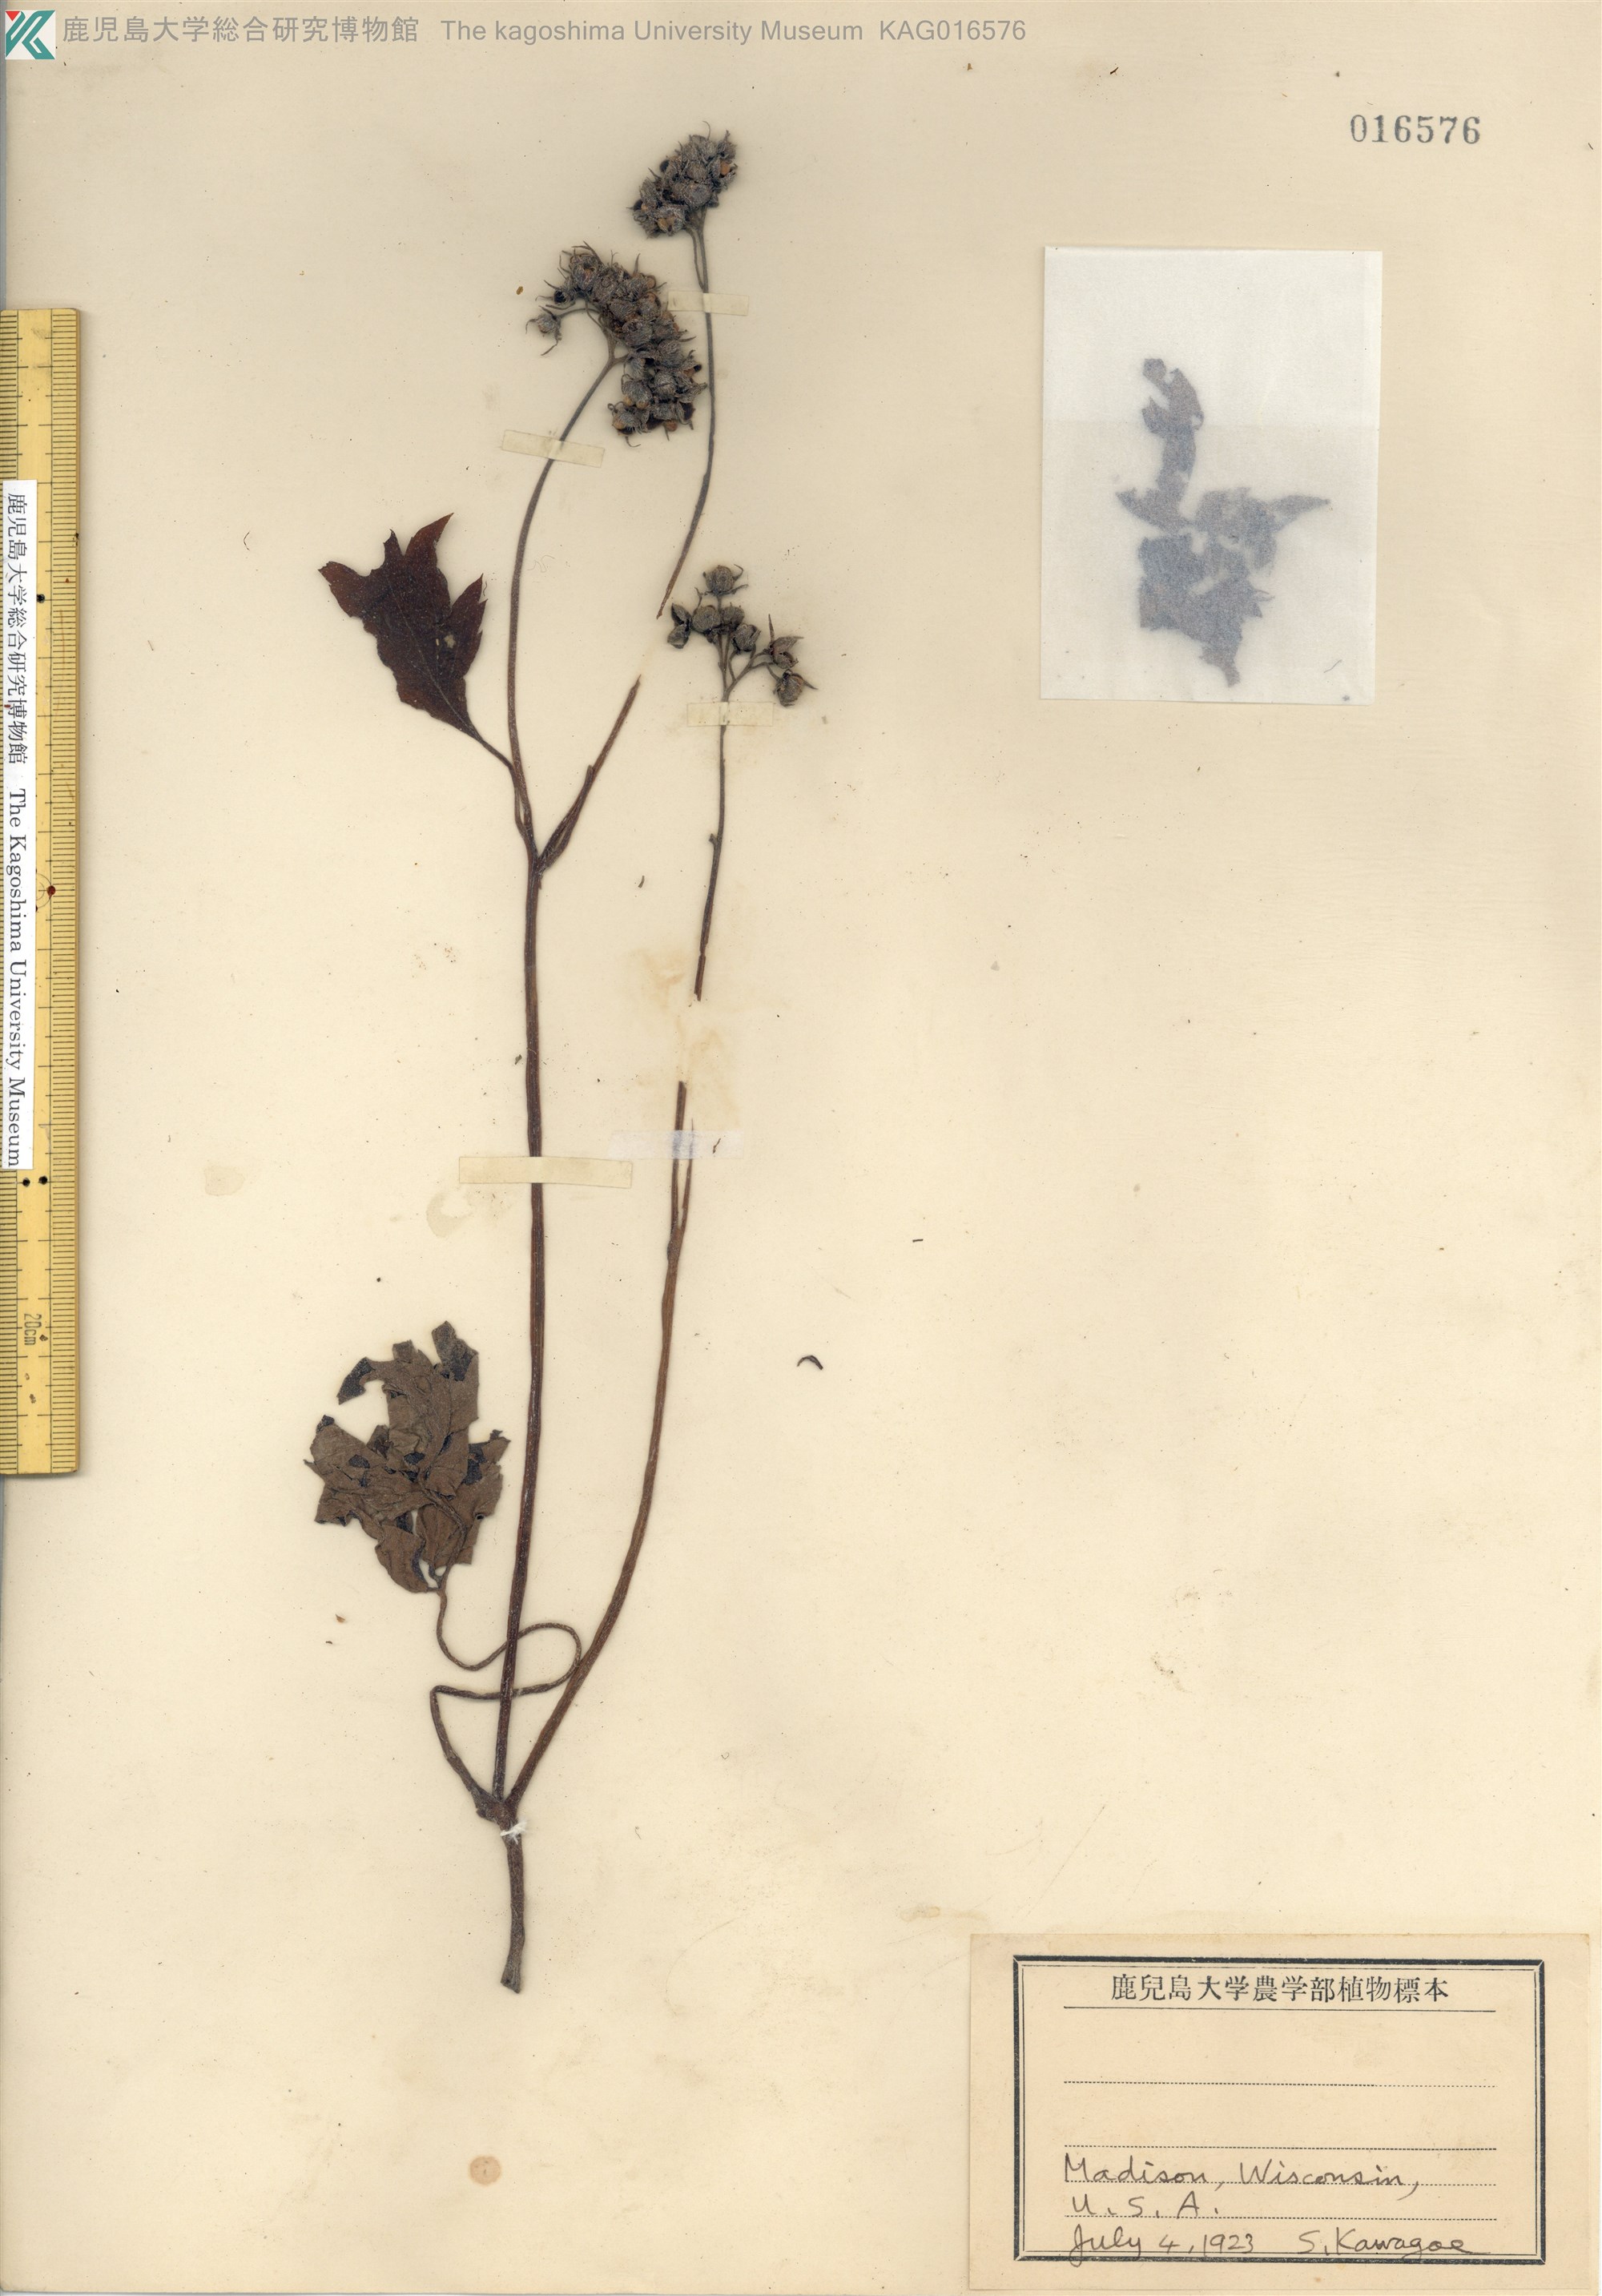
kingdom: Plantae
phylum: Tracheophyta
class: Magnoliopsida
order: Boraginales
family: Hydrophyllaceae
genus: Hydrophyllum
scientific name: Hydrophyllum virginianum
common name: Virginia waterleaf
